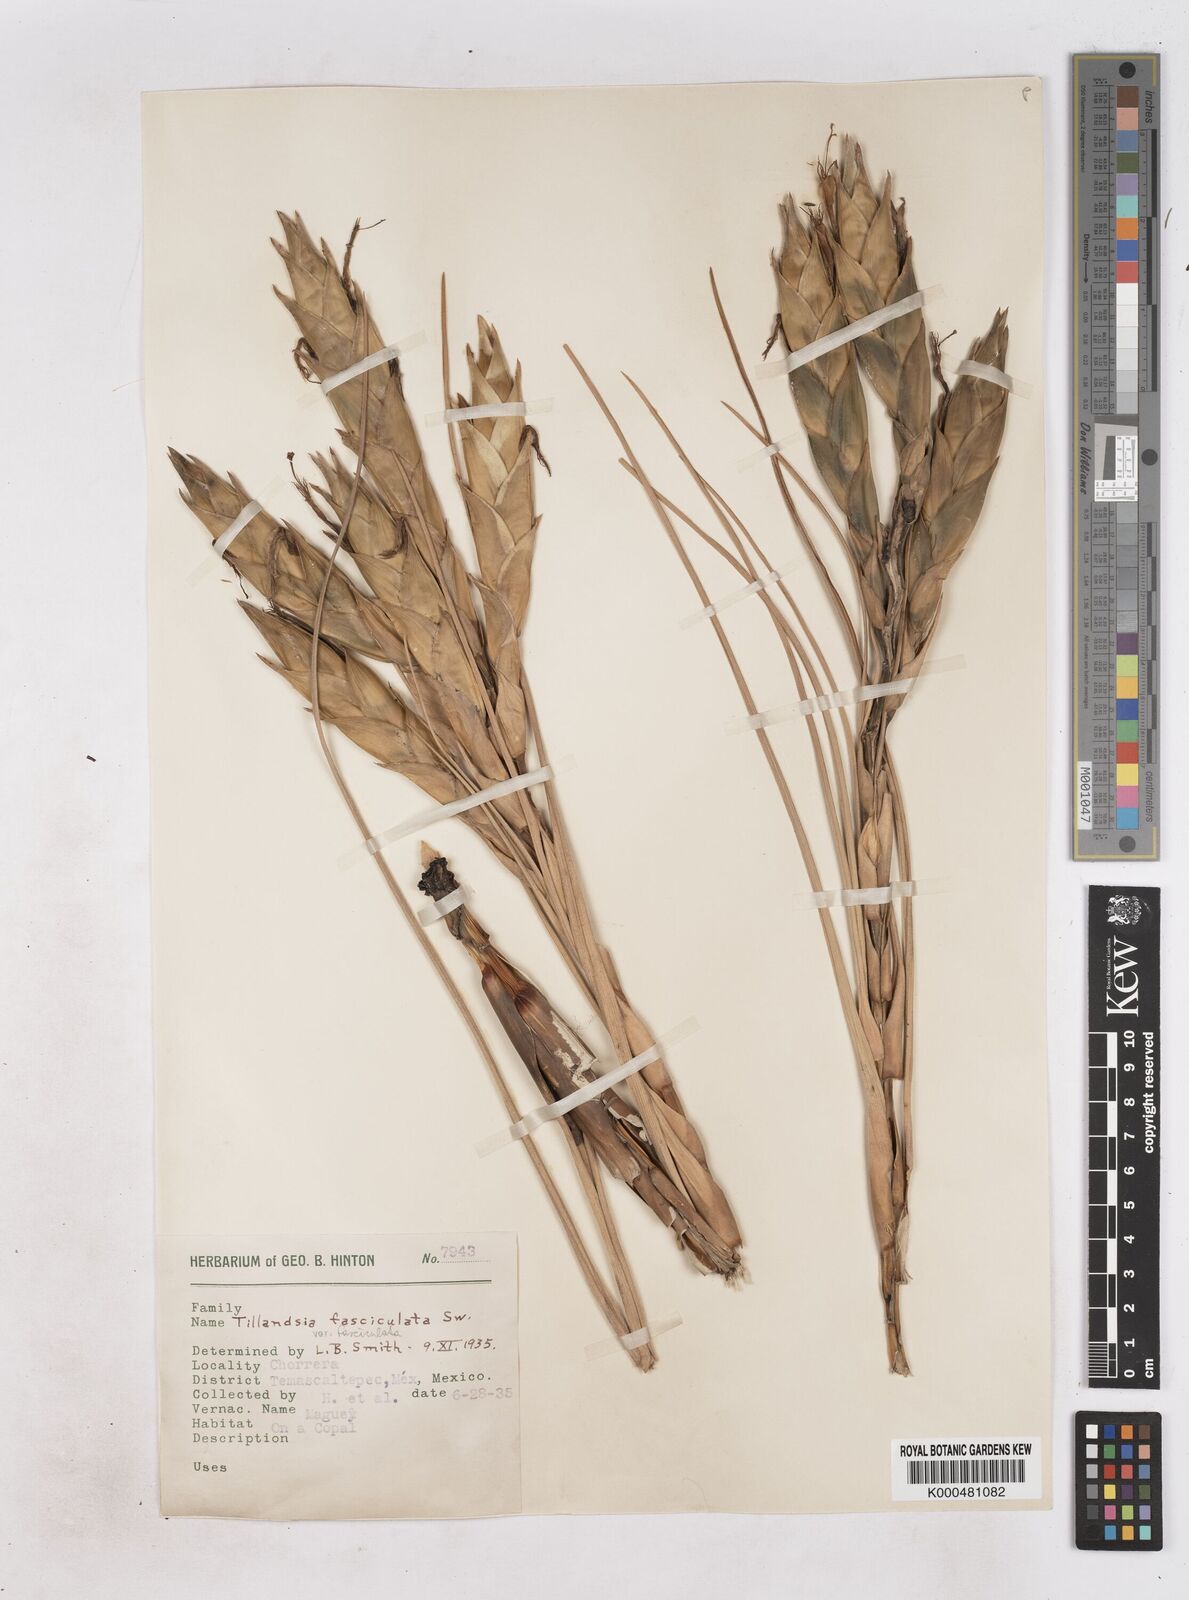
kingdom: Plantae
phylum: Tracheophyta
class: Liliopsida
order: Poales
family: Bromeliaceae
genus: Tillandsia
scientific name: Tillandsia fasciculata
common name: Giant airplant
